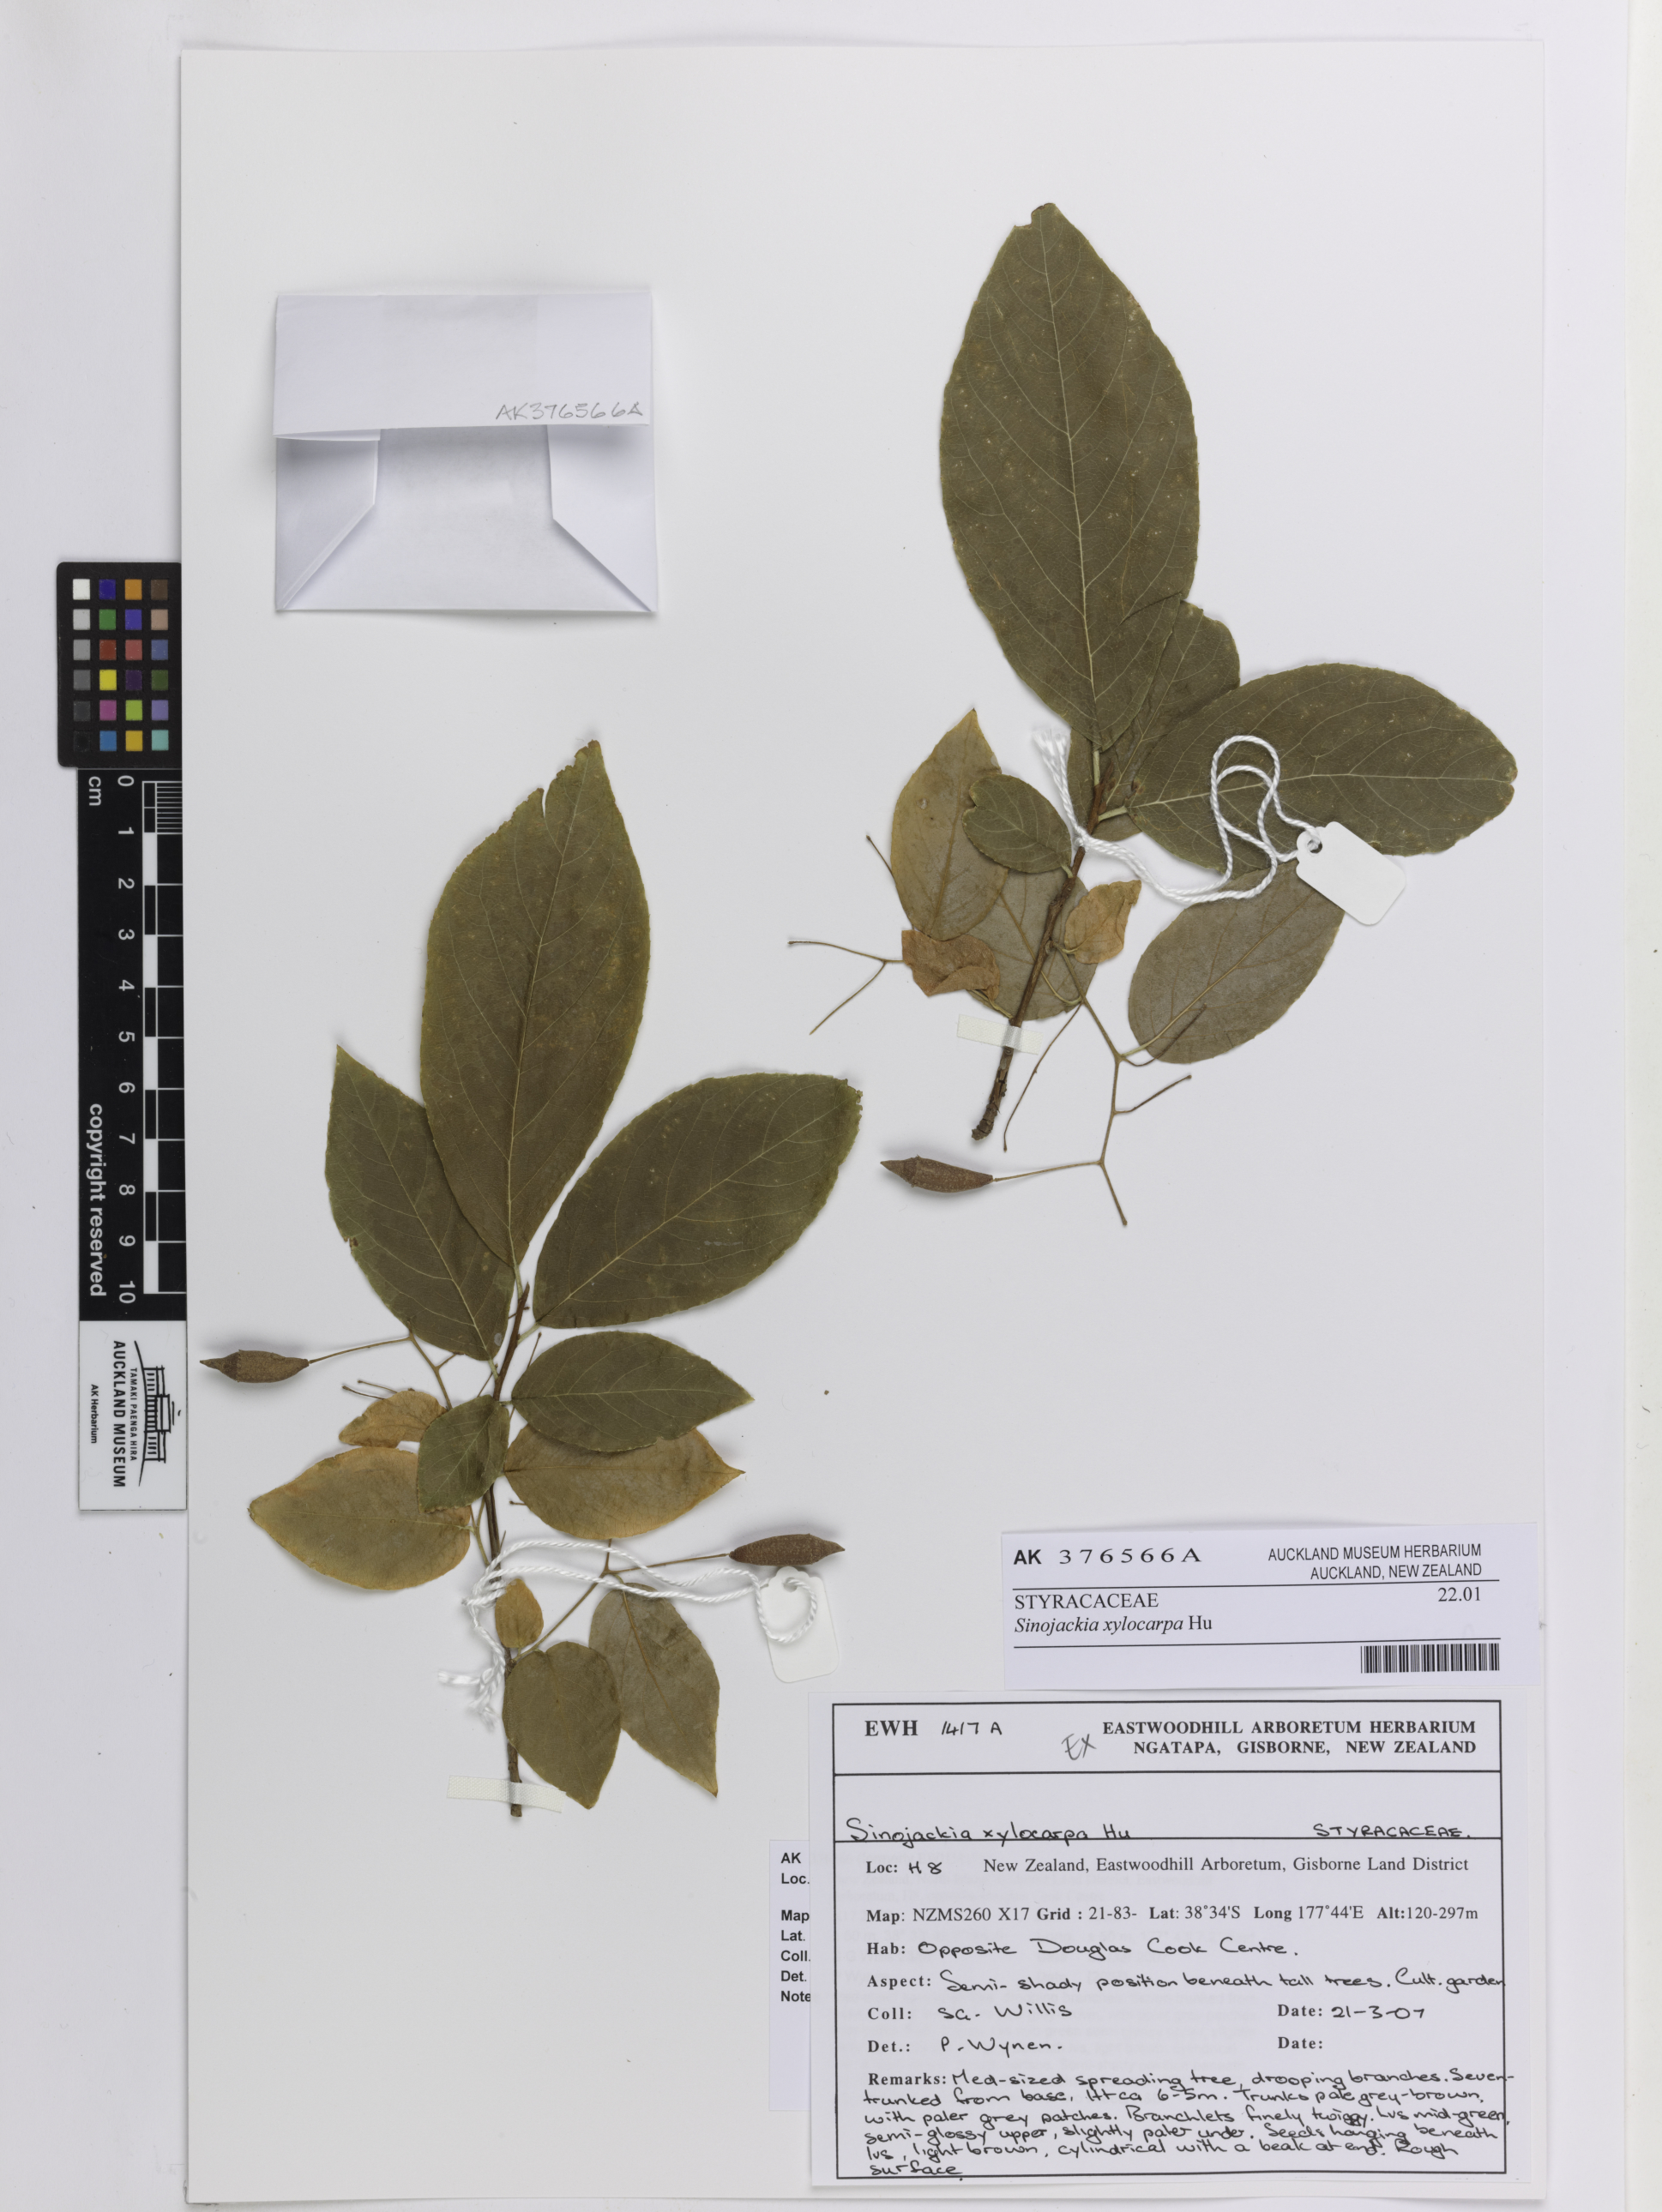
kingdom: Plantae
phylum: Tracheophyta
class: Magnoliopsida
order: Ericales
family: Styracaceae
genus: Sinojackia
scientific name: Sinojackia xylocarpa
